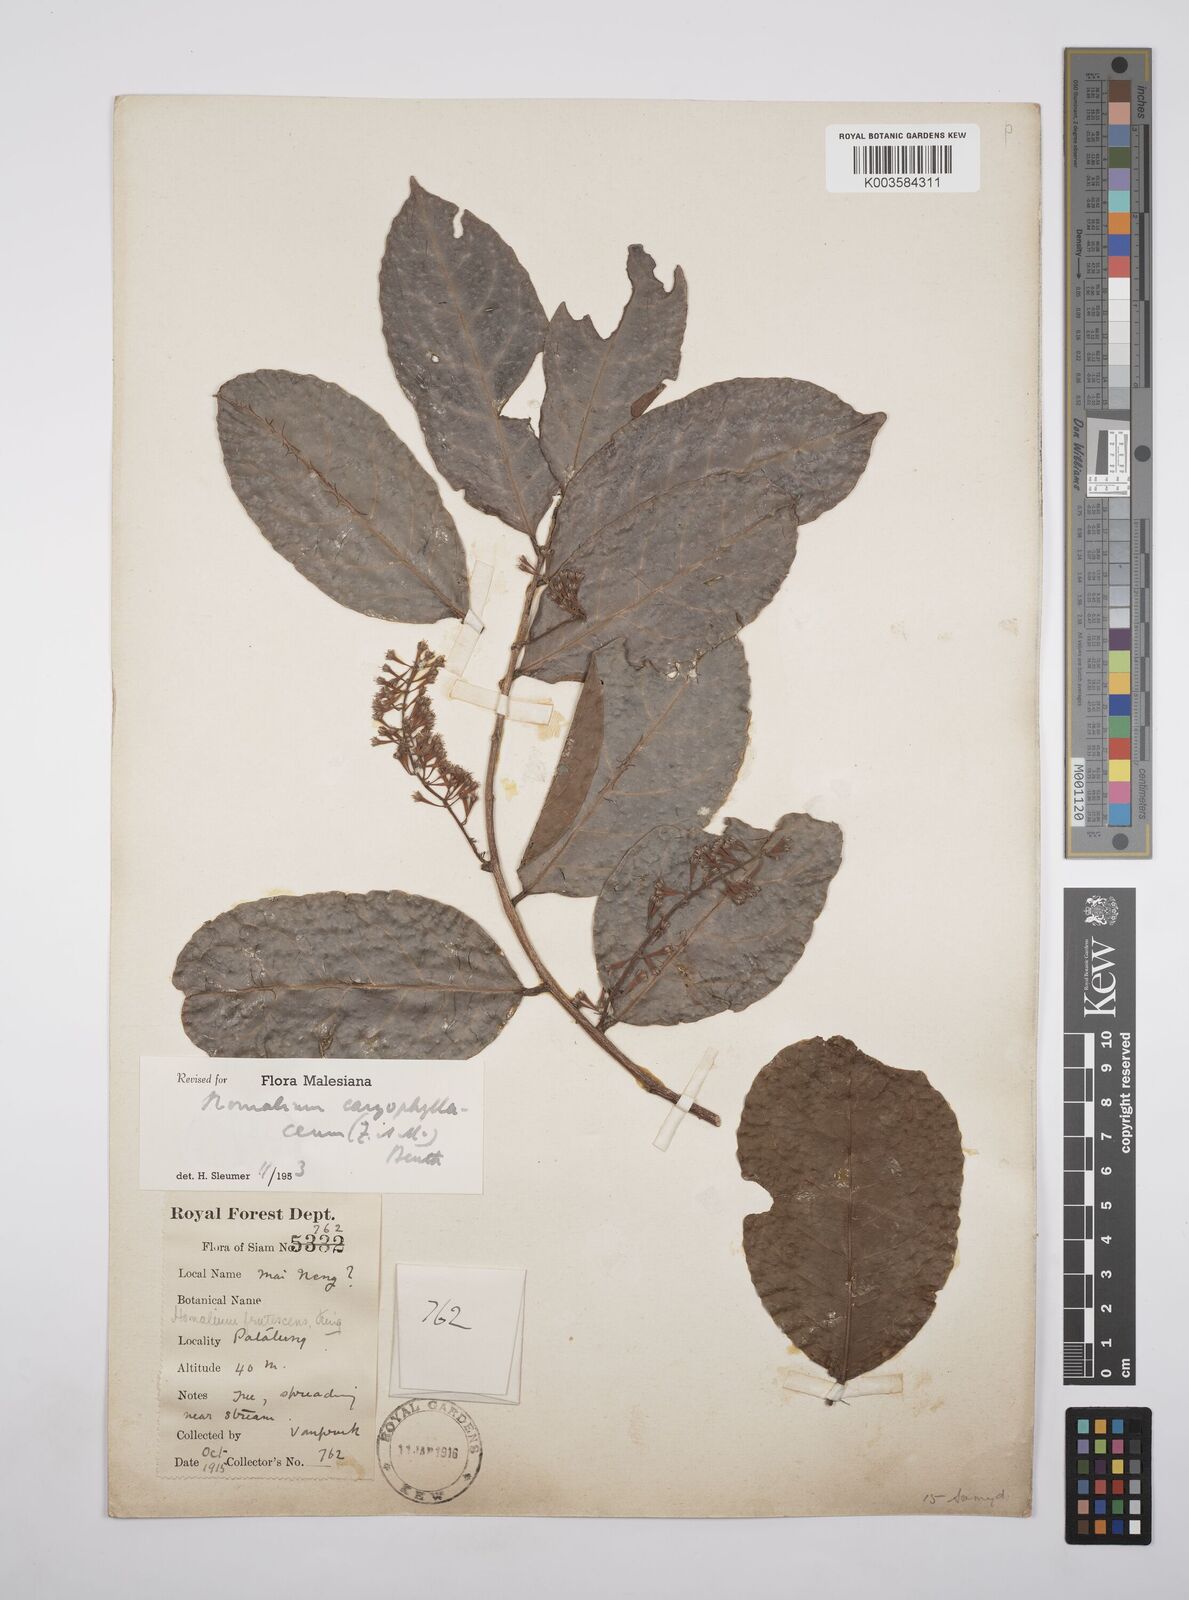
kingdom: Plantae
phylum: Tracheophyta
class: Magnoliopsida
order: Malpighiales
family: Salicaceae
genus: Homalium
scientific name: Homalium caryophyllaceum
